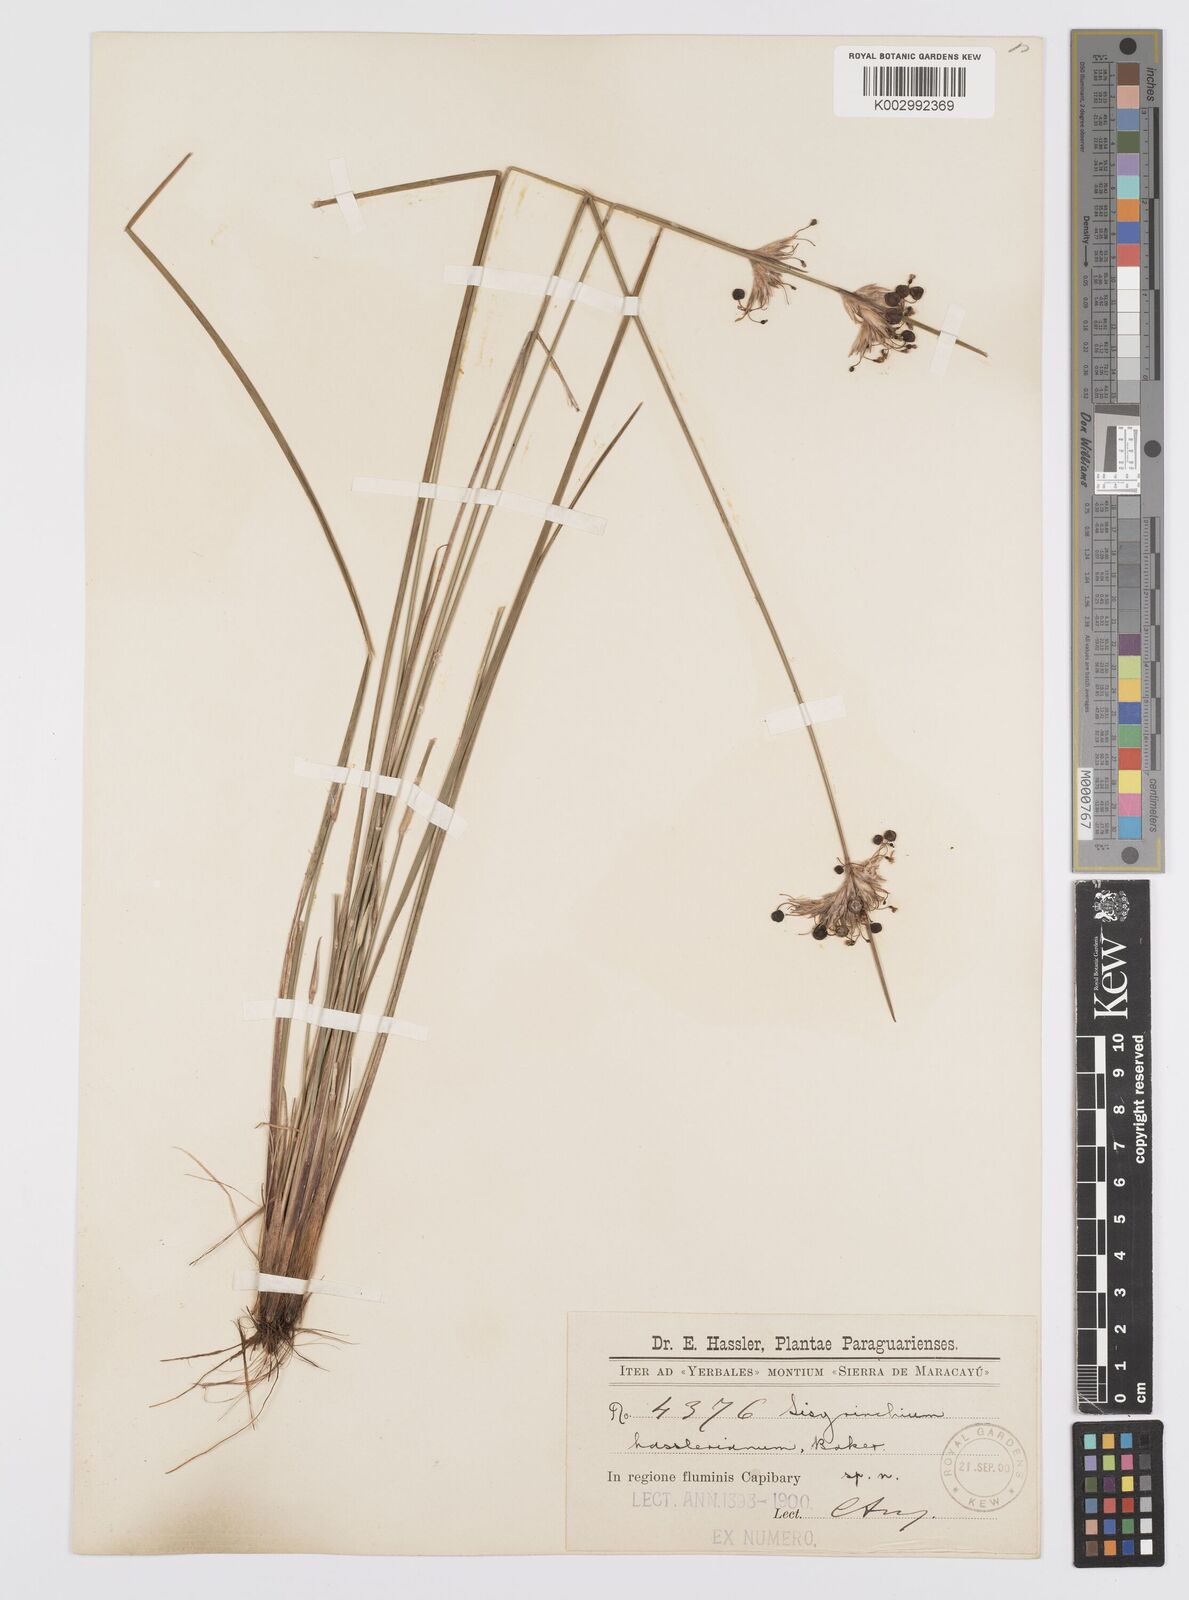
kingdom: Plantae
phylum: Tracheophyta
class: Liliopsida
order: Asparagales
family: Iridaceae
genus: Sisyrinchium
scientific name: Sisyrinchium hasslerianum
